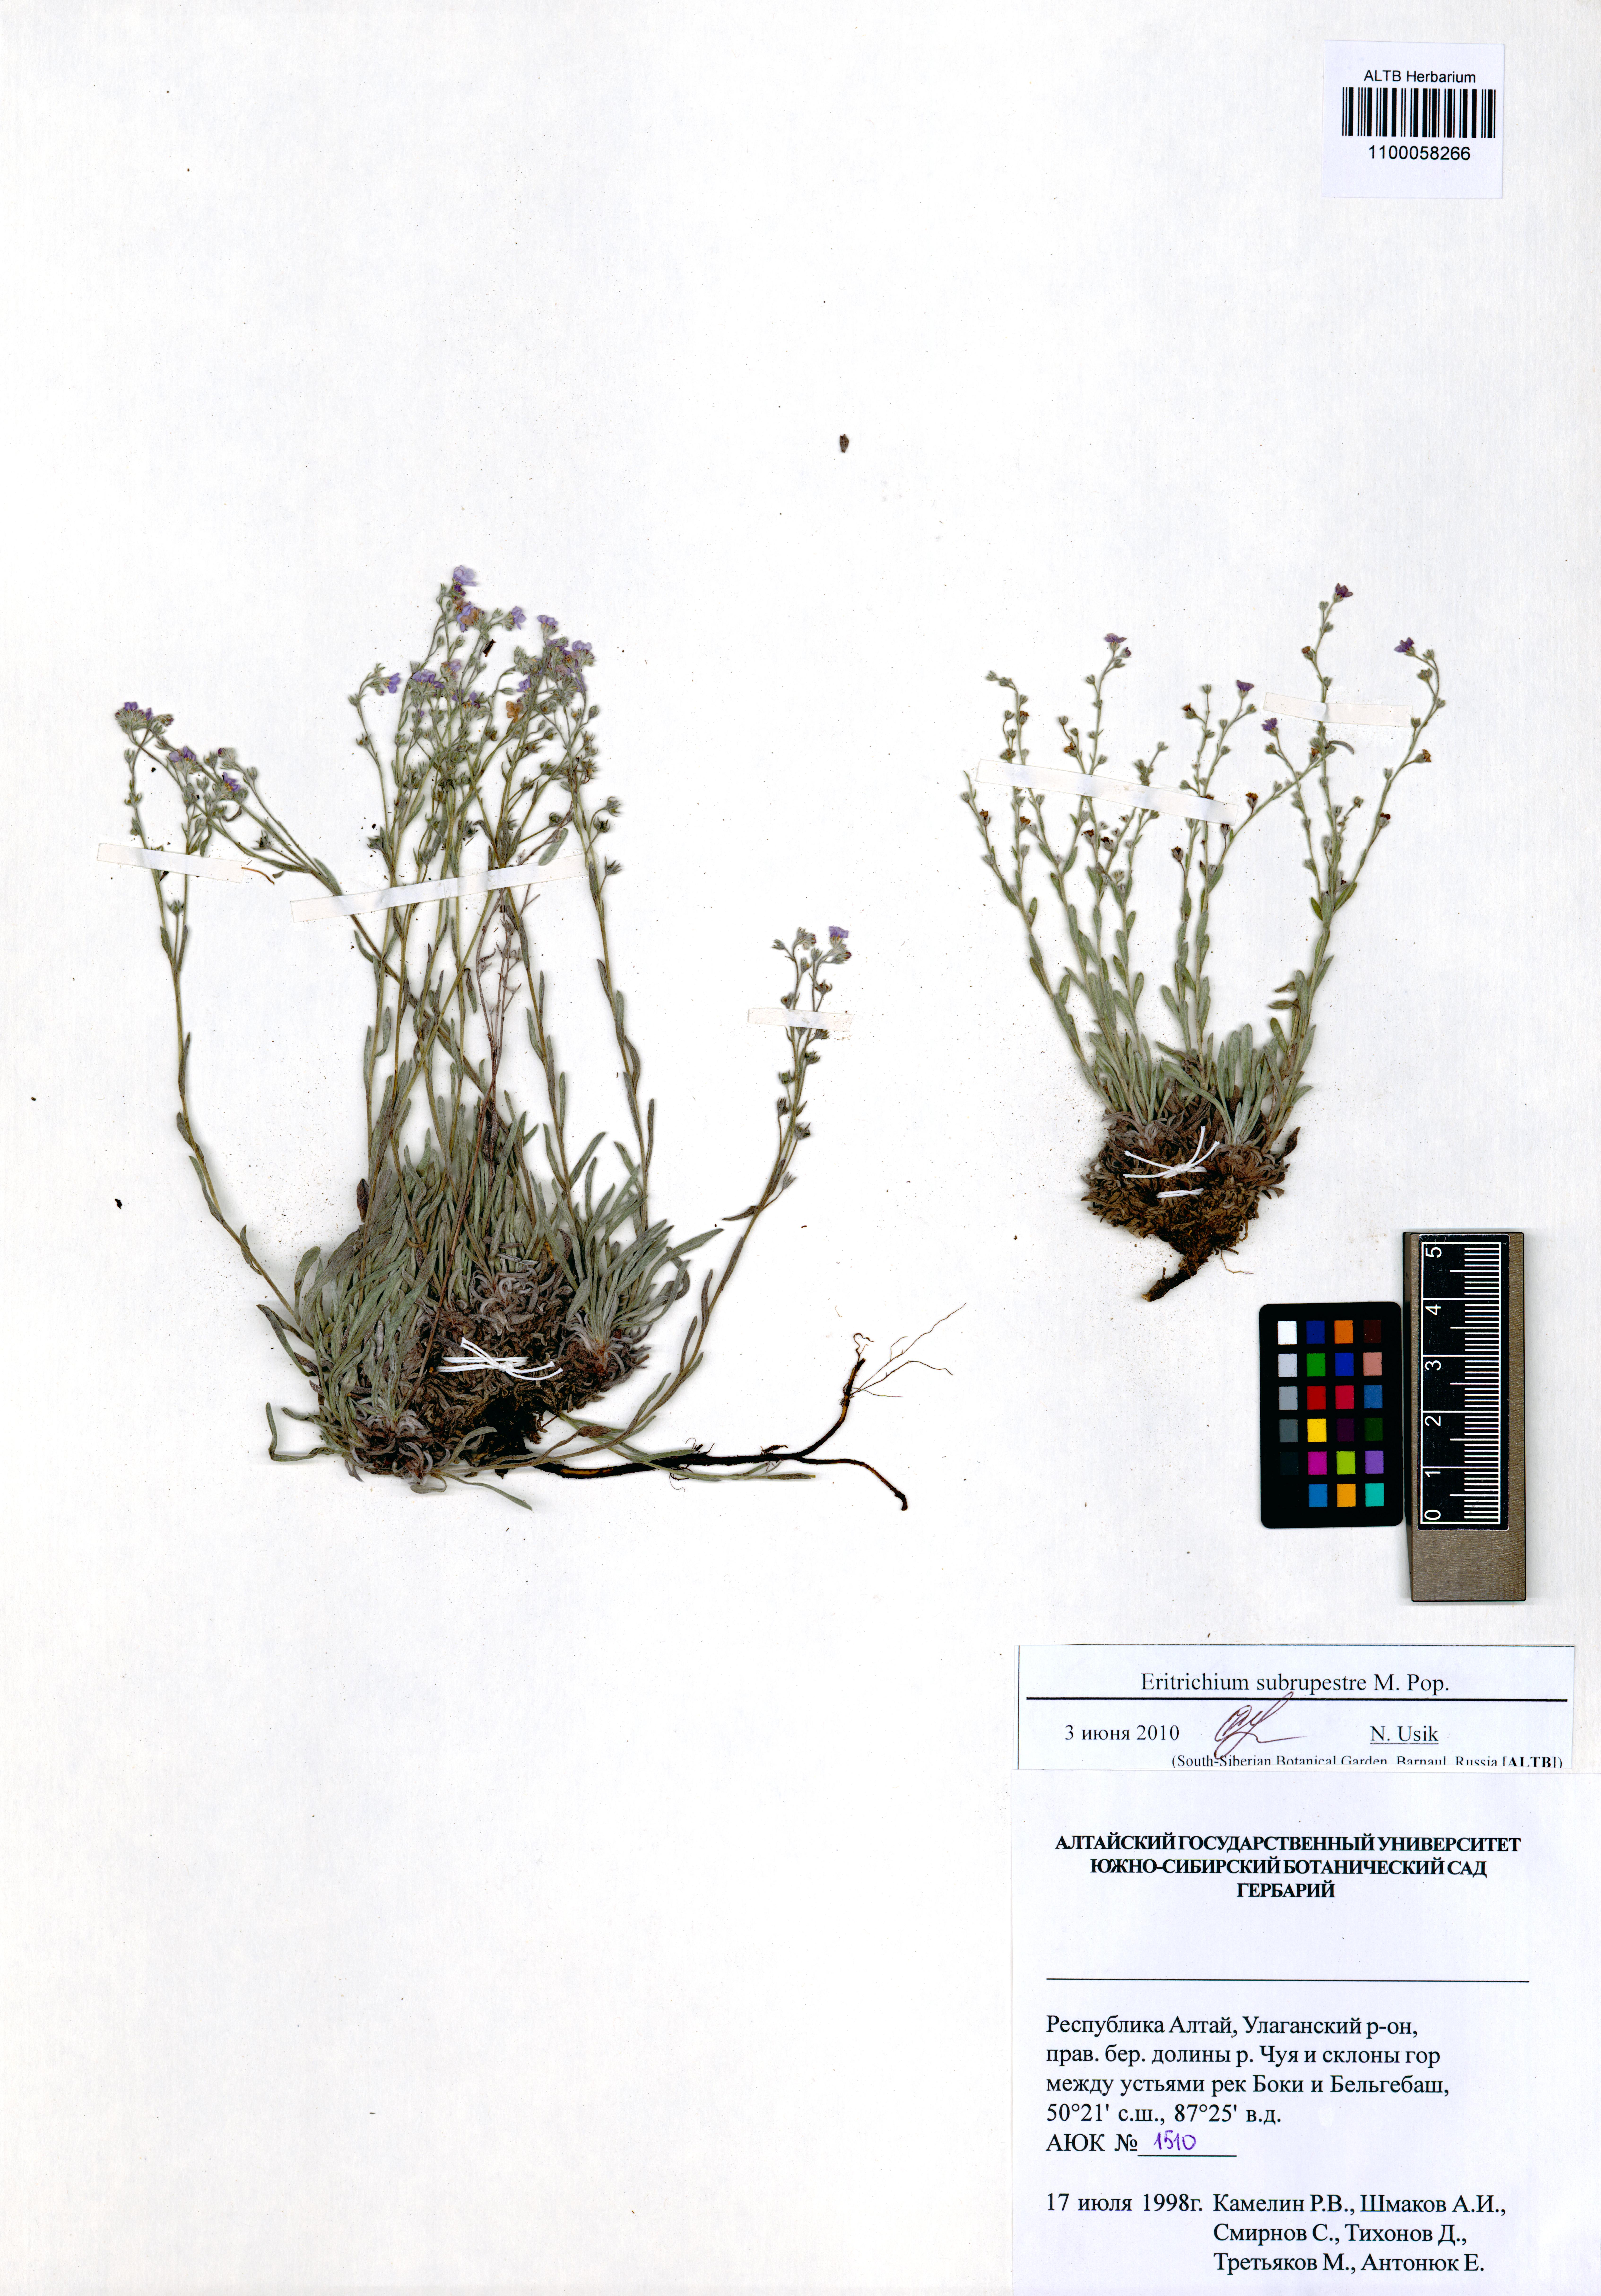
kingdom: Plantae
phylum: Tracheophyta
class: Magnoliopsida
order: Boraginales
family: Boraginaceae
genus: Eritrichium
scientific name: Eritrichium pauciflorum
